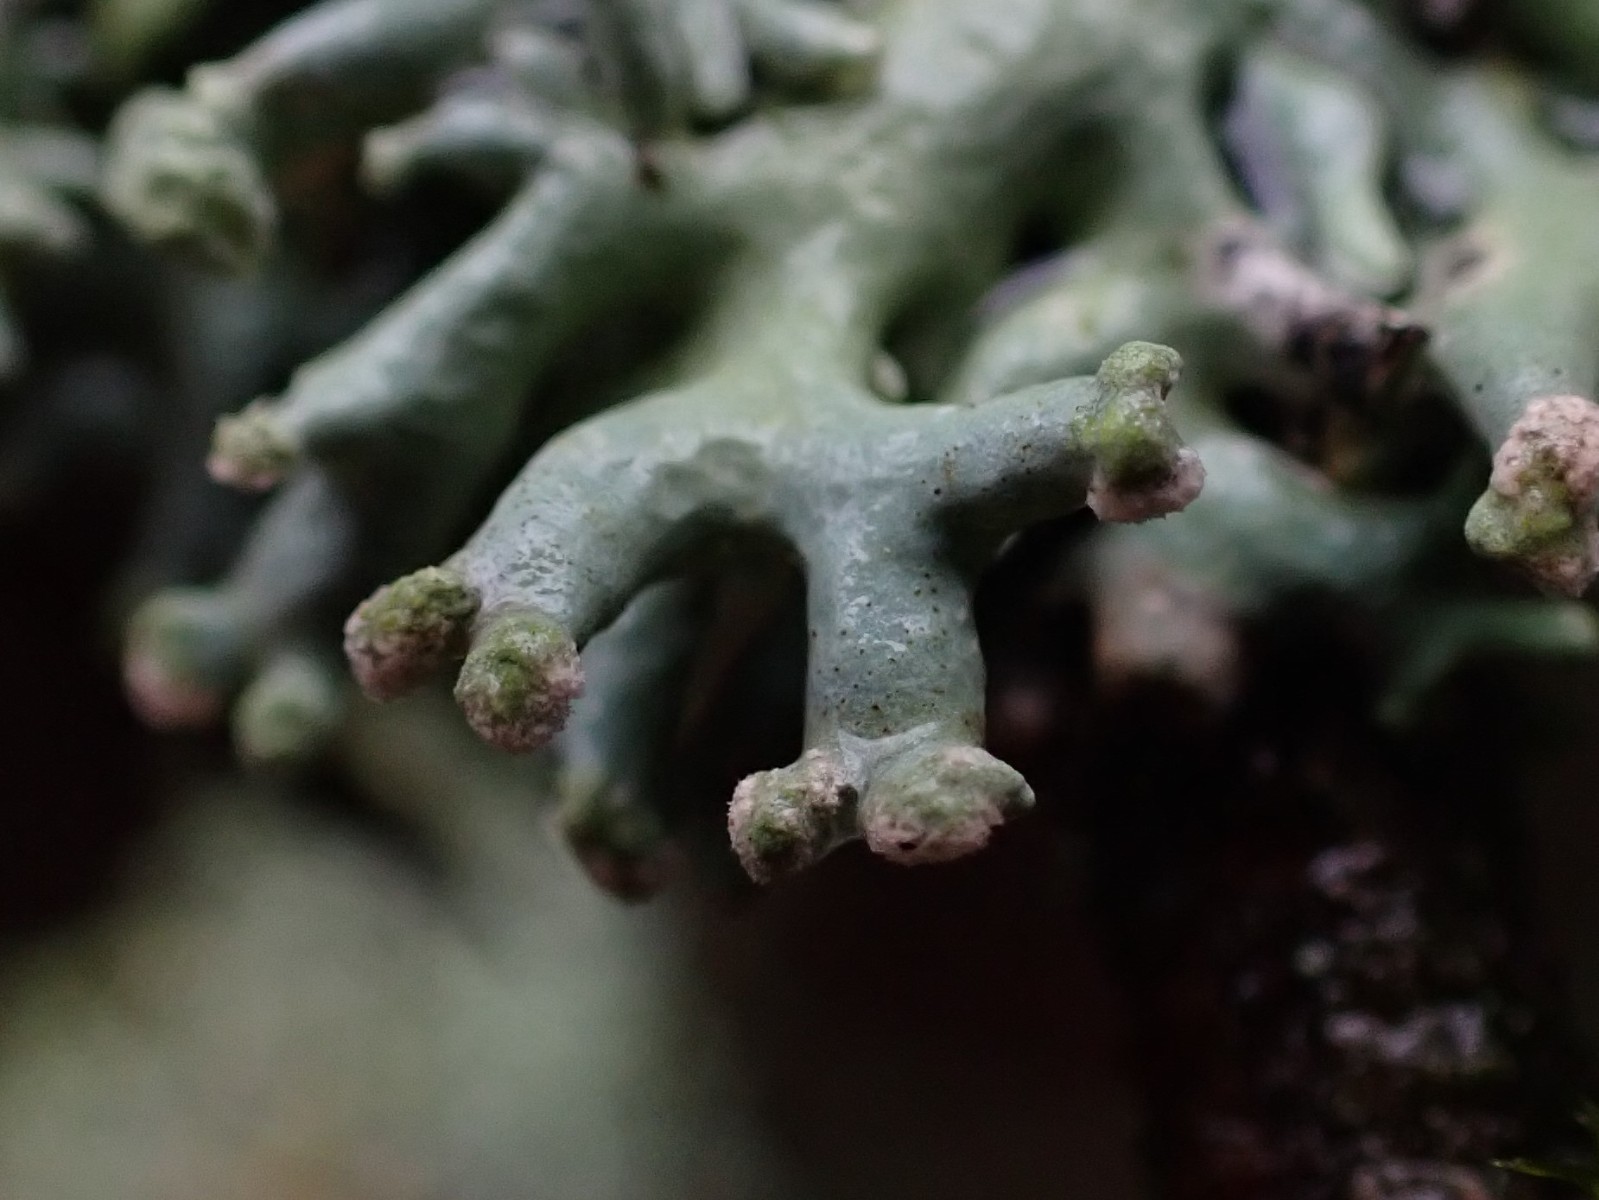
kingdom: Fungi
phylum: Ascomycota
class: Lecanoromycetes
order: Lecanorales
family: Parmeliaceae
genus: Hypogymnia
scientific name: Hypogymnia tubulosa
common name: finger-kvistlav
